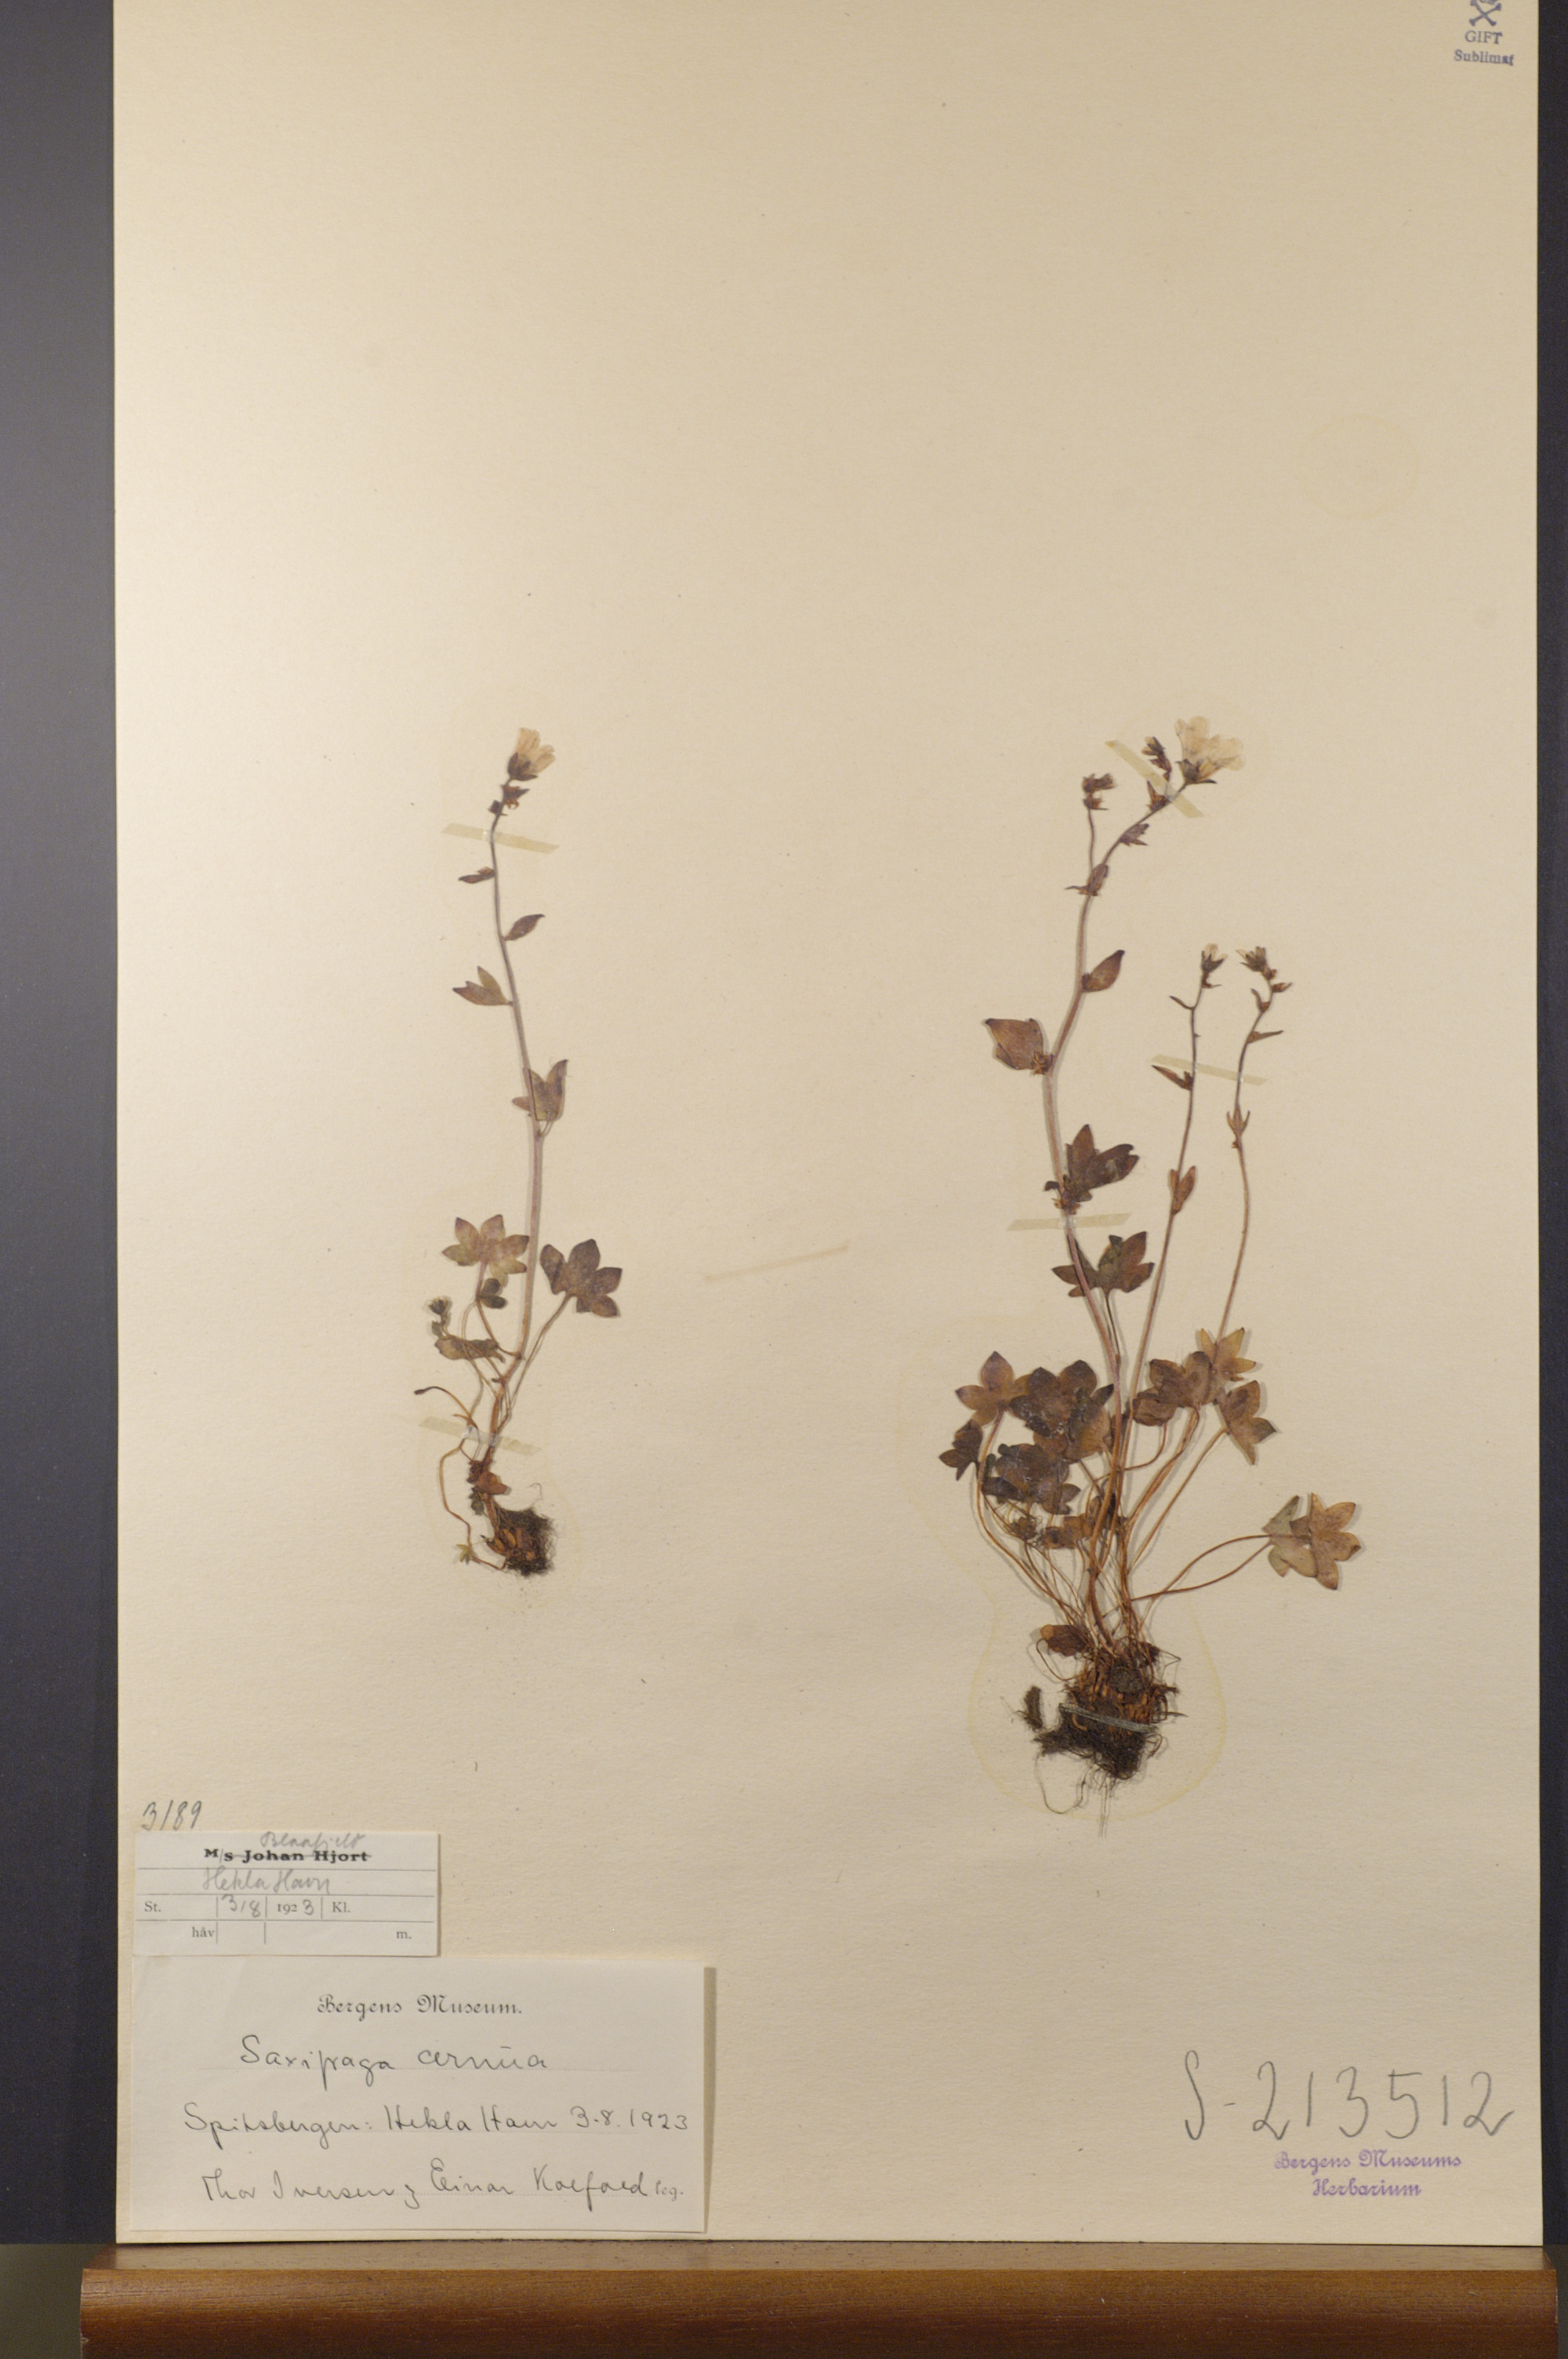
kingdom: Plantae
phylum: Tracheophyta
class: Magnoliopsida
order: Saxifragales
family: Saxifragaceae
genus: Saxifraga
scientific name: Saxifraga cernua
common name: Drooping saxifrage
